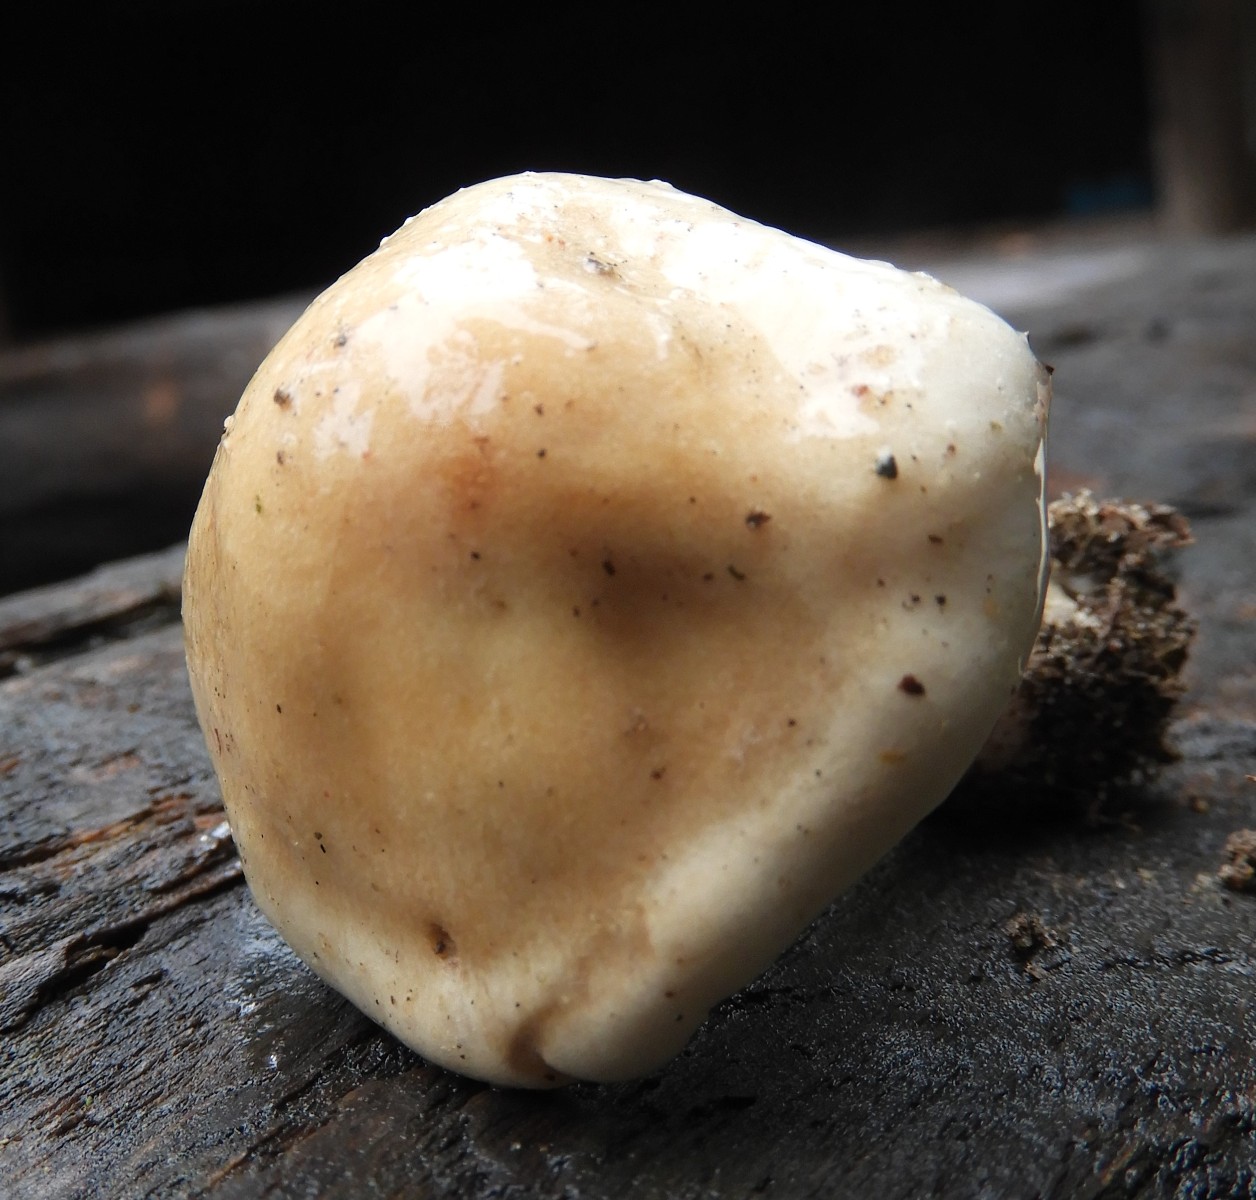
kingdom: Fungi
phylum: Basidiomycota
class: Agaricomycetes
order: Agaricales
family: Hymenogastraceae
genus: Hebeloma
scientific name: Hebeloma
